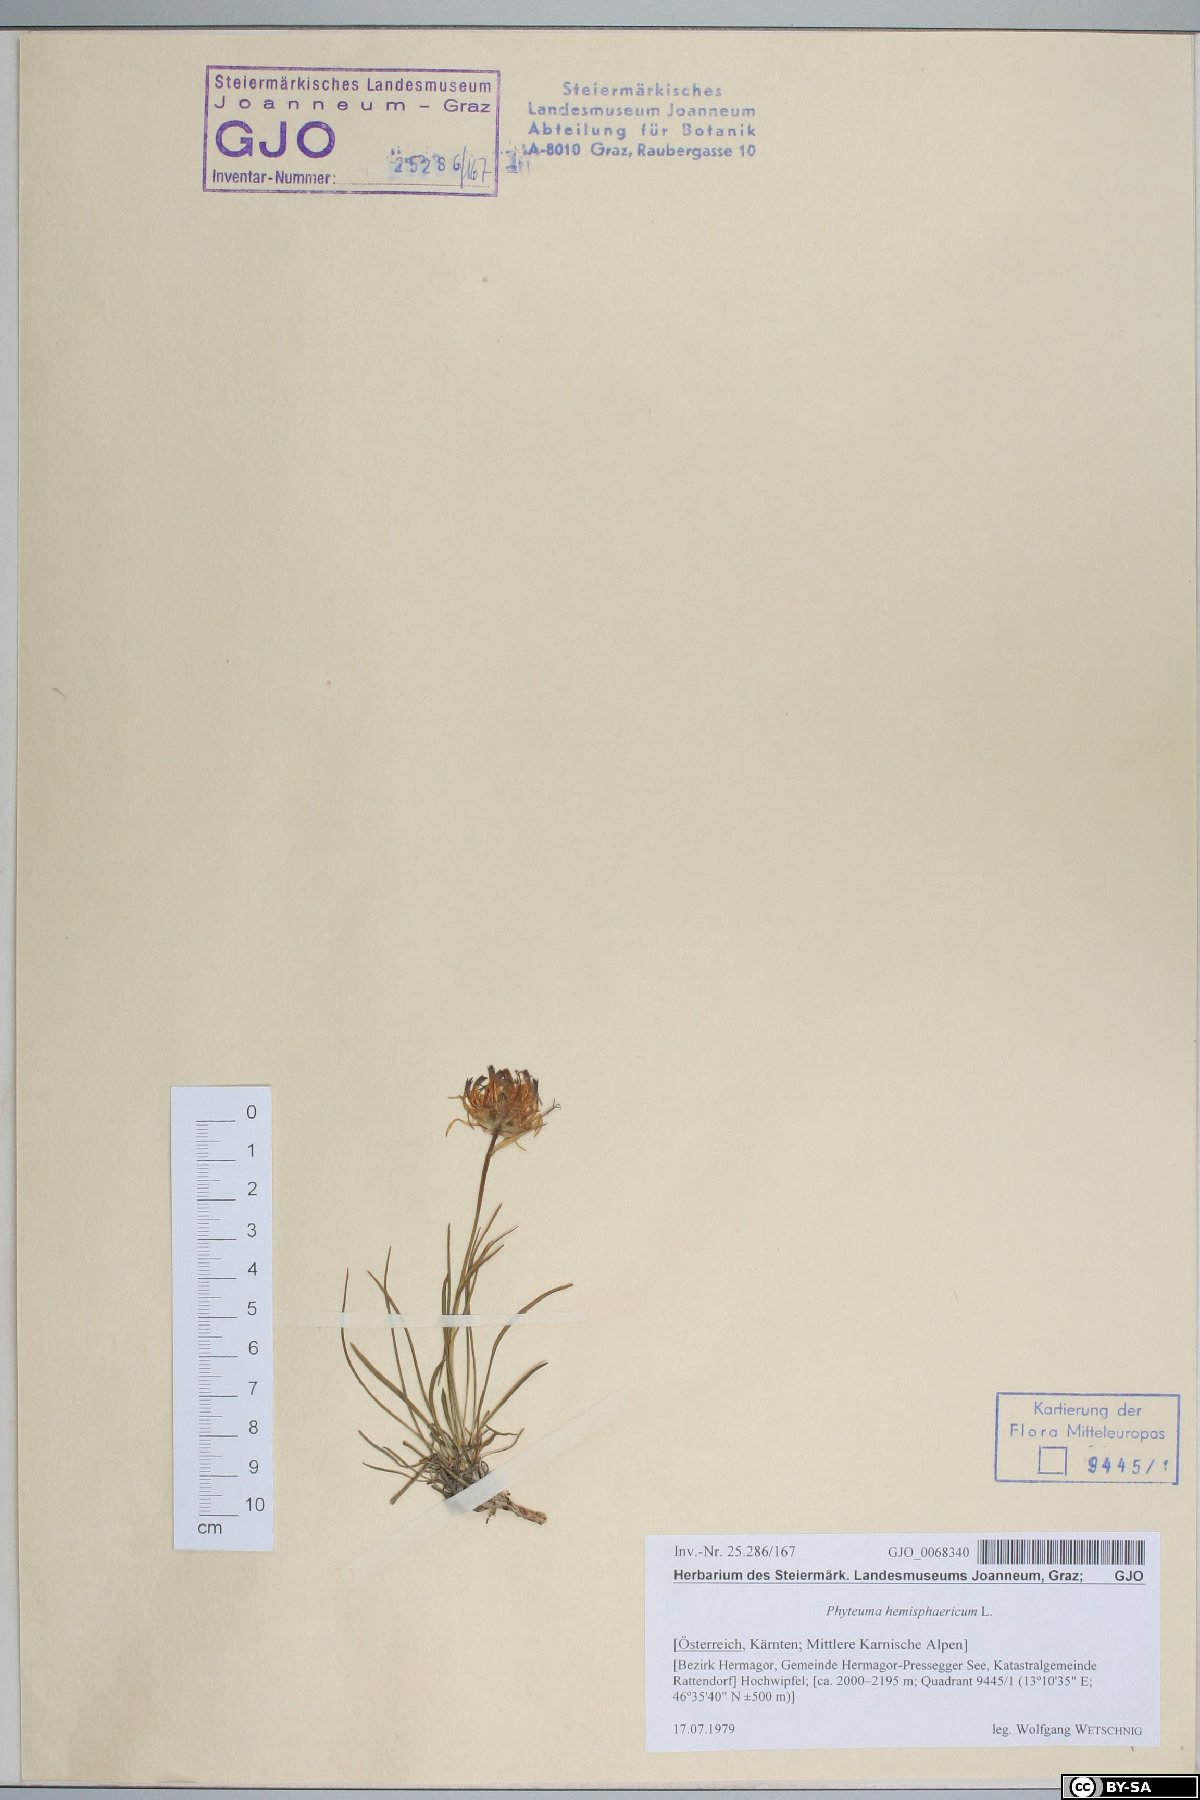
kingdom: Plantae
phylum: Tracheophyta
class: Magnoliopsida
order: Asterales
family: Campanulaceae
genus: Phyteuma
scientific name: Phyteuma hemisphaericum
